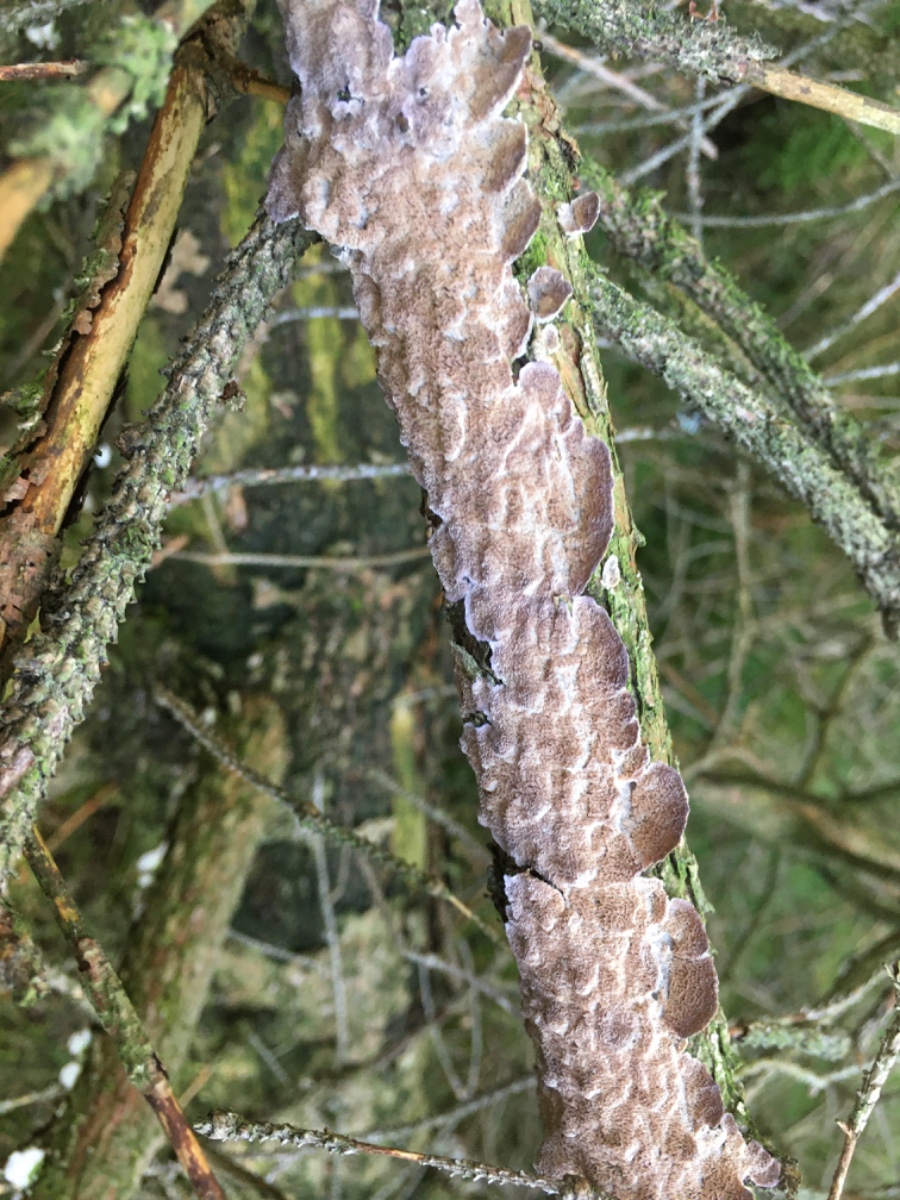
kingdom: Fungi
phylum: Basidiomycota
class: Agaricomycetes
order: Hymenochaetales
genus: Trichaptum
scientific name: Trichaptum abietinum
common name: almindelig violporesvamp
